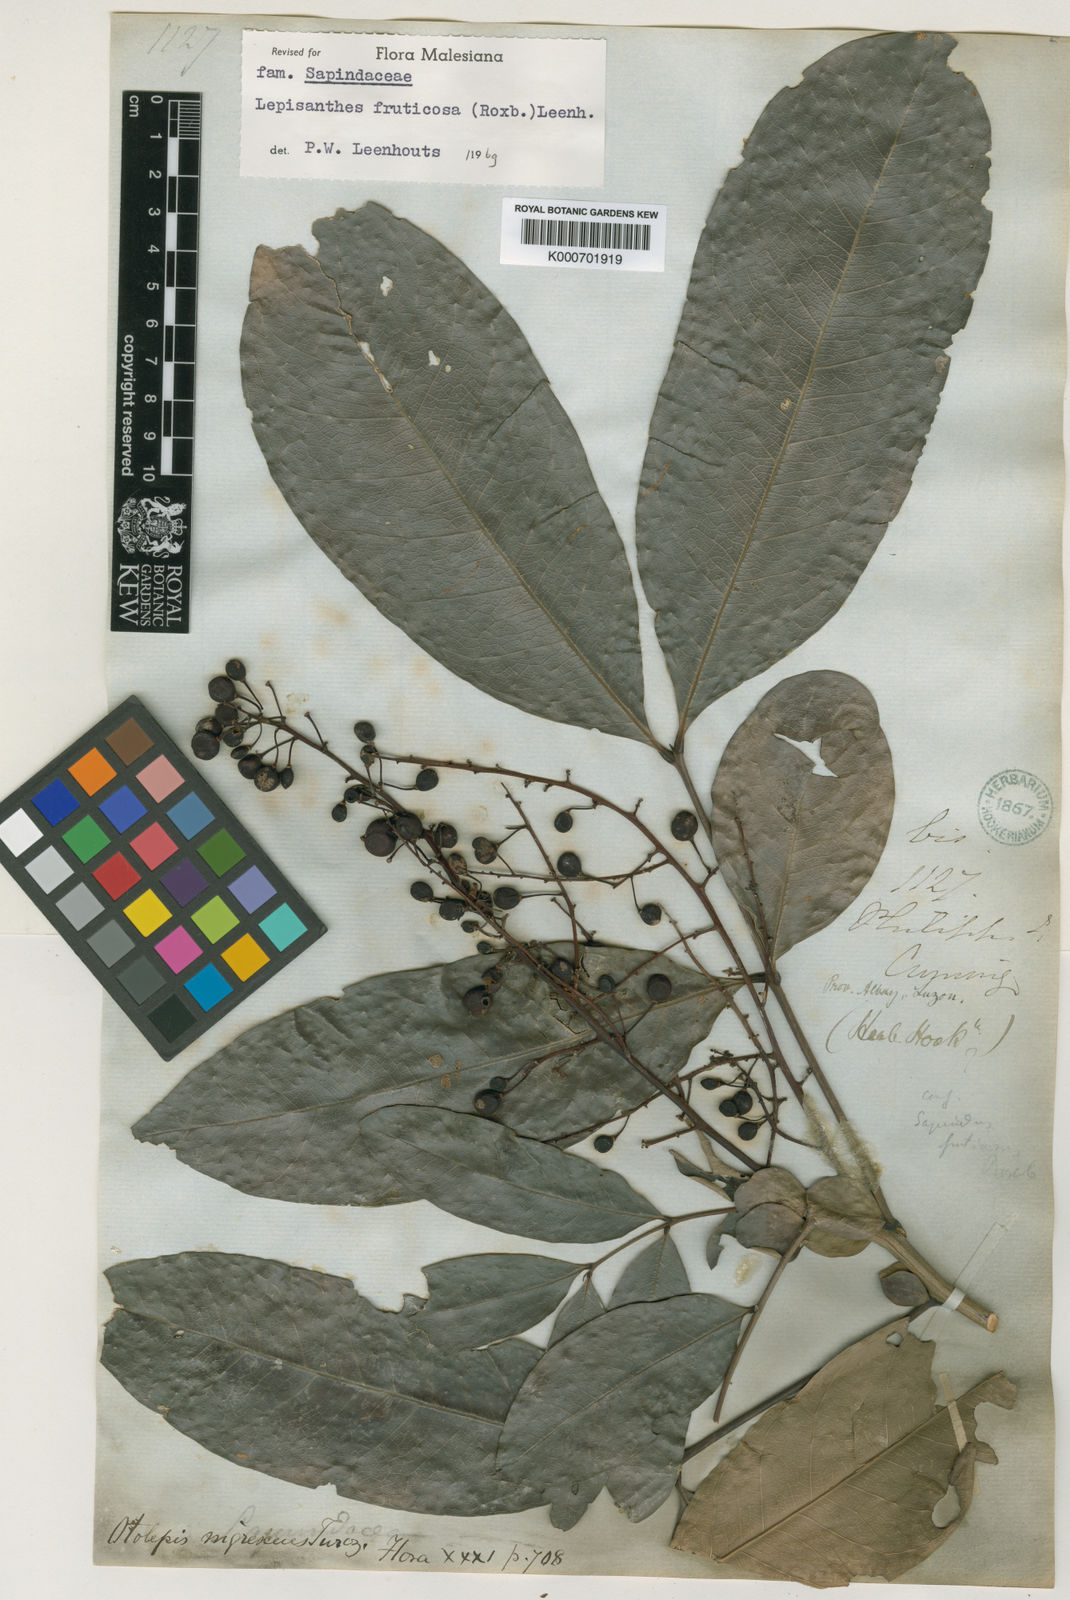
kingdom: Plantae
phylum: Tracheophyta
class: Magnoliopsida
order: Sapindales
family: Sapindaceae
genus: Lepisanthes
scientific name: Lepisanthes fruticosa
